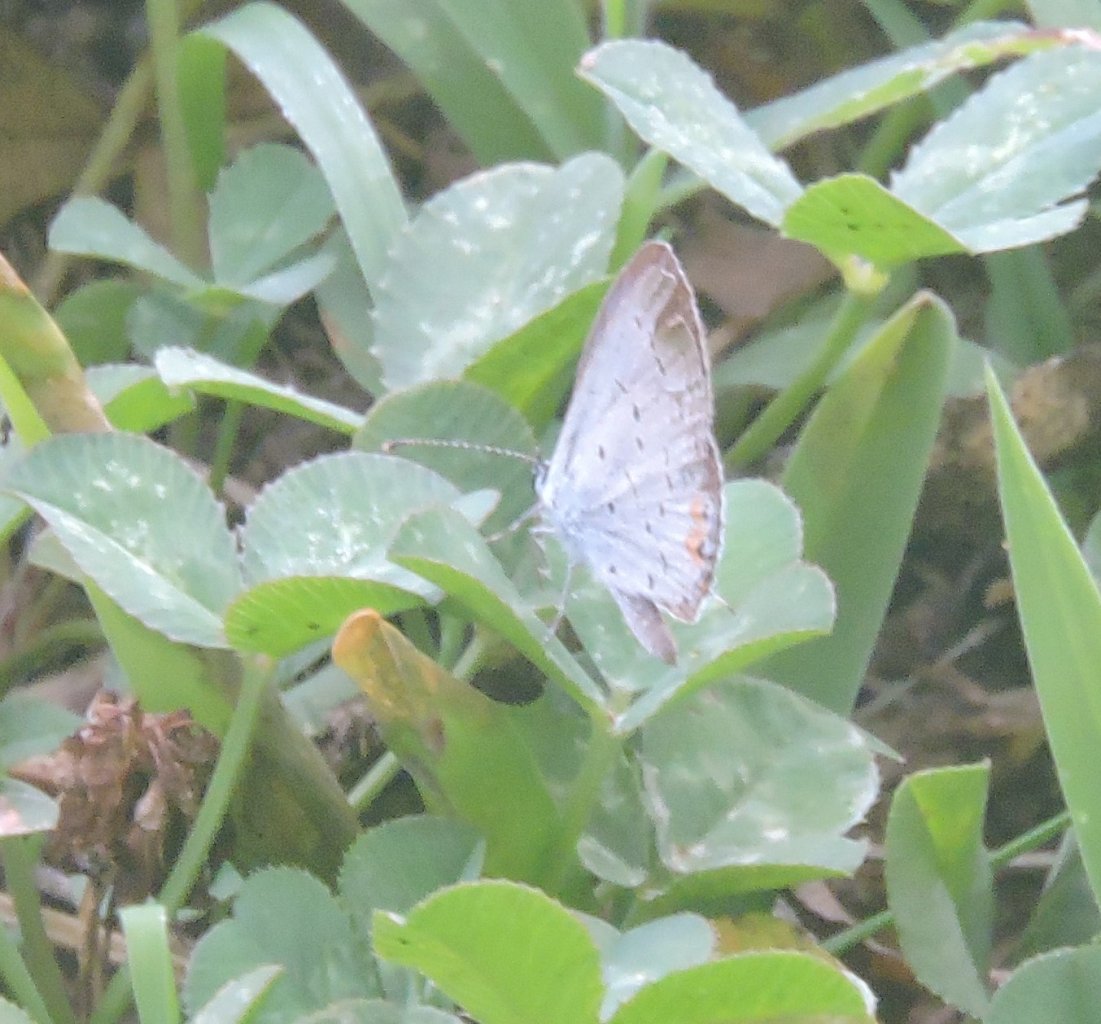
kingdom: Animalia
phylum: Arthropoda
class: Insecta
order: Lepidoptera
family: Lycaenidae
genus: Elkalyce
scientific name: Elkalyce comyntas
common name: Eastern Tailed-Blue
